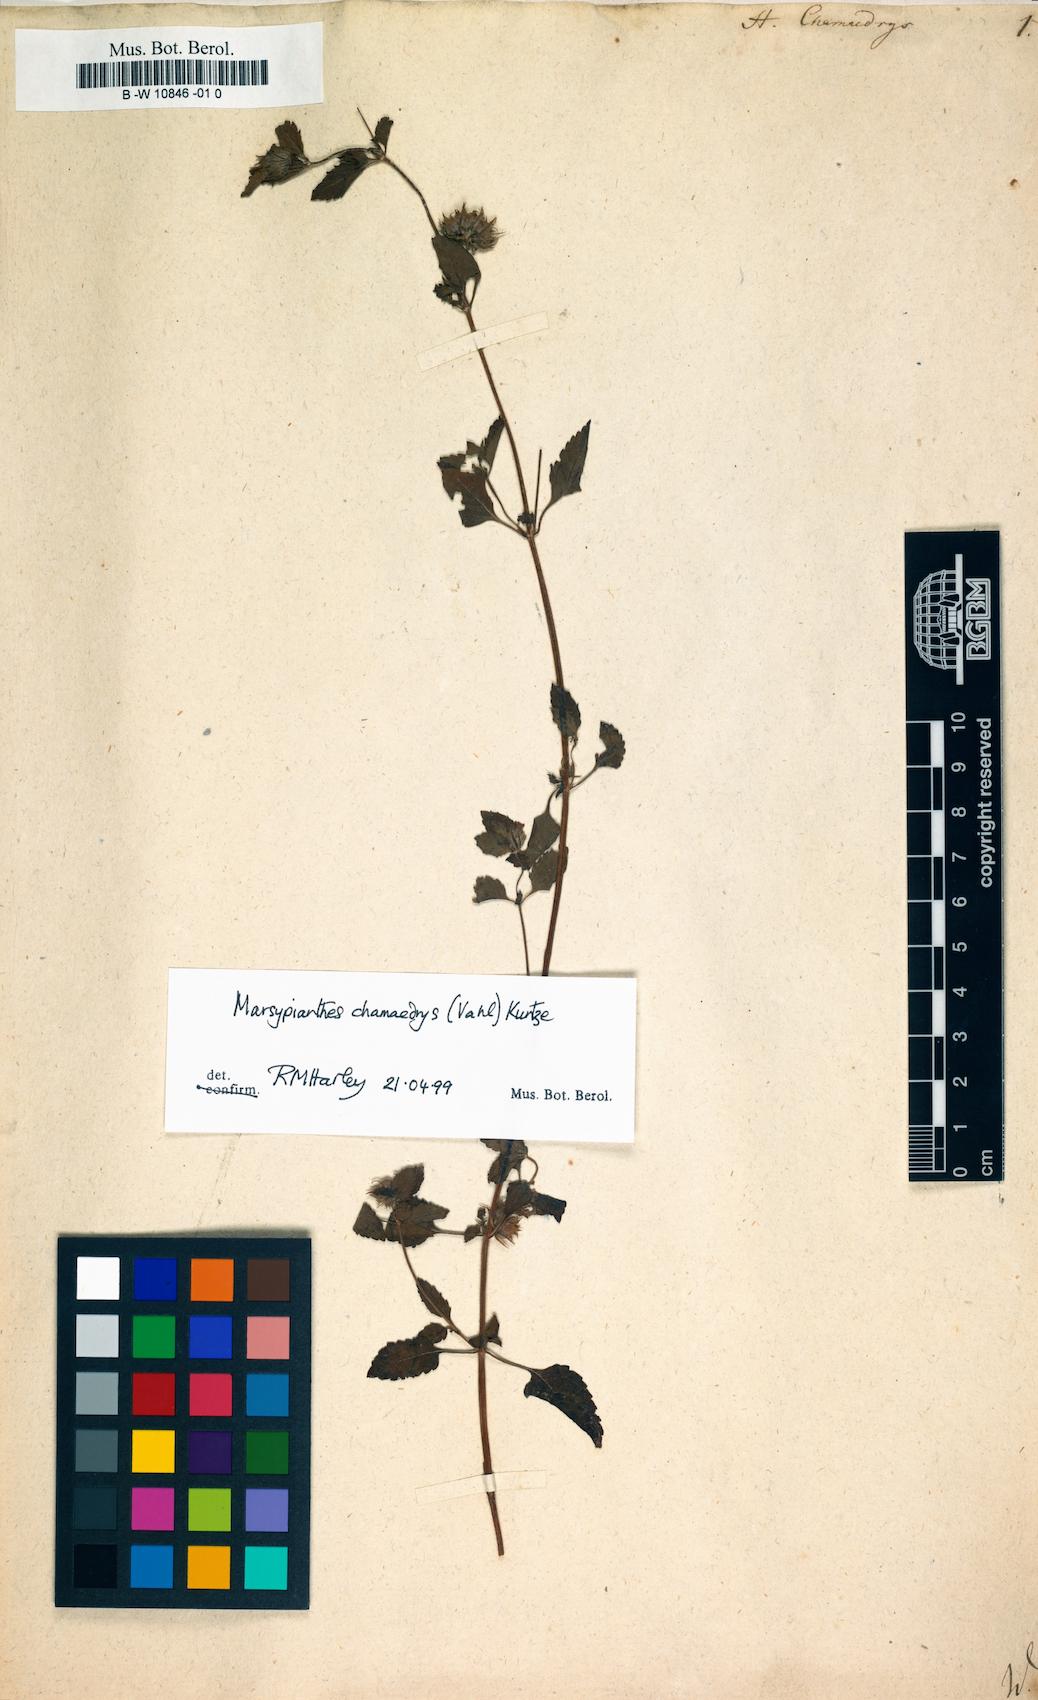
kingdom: Plantae
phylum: Tracheophyta
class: Magnoliopsida
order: Lamiales
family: Lamiaceae
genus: Marsypianthes
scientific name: Marsypianthes chamaedrys
